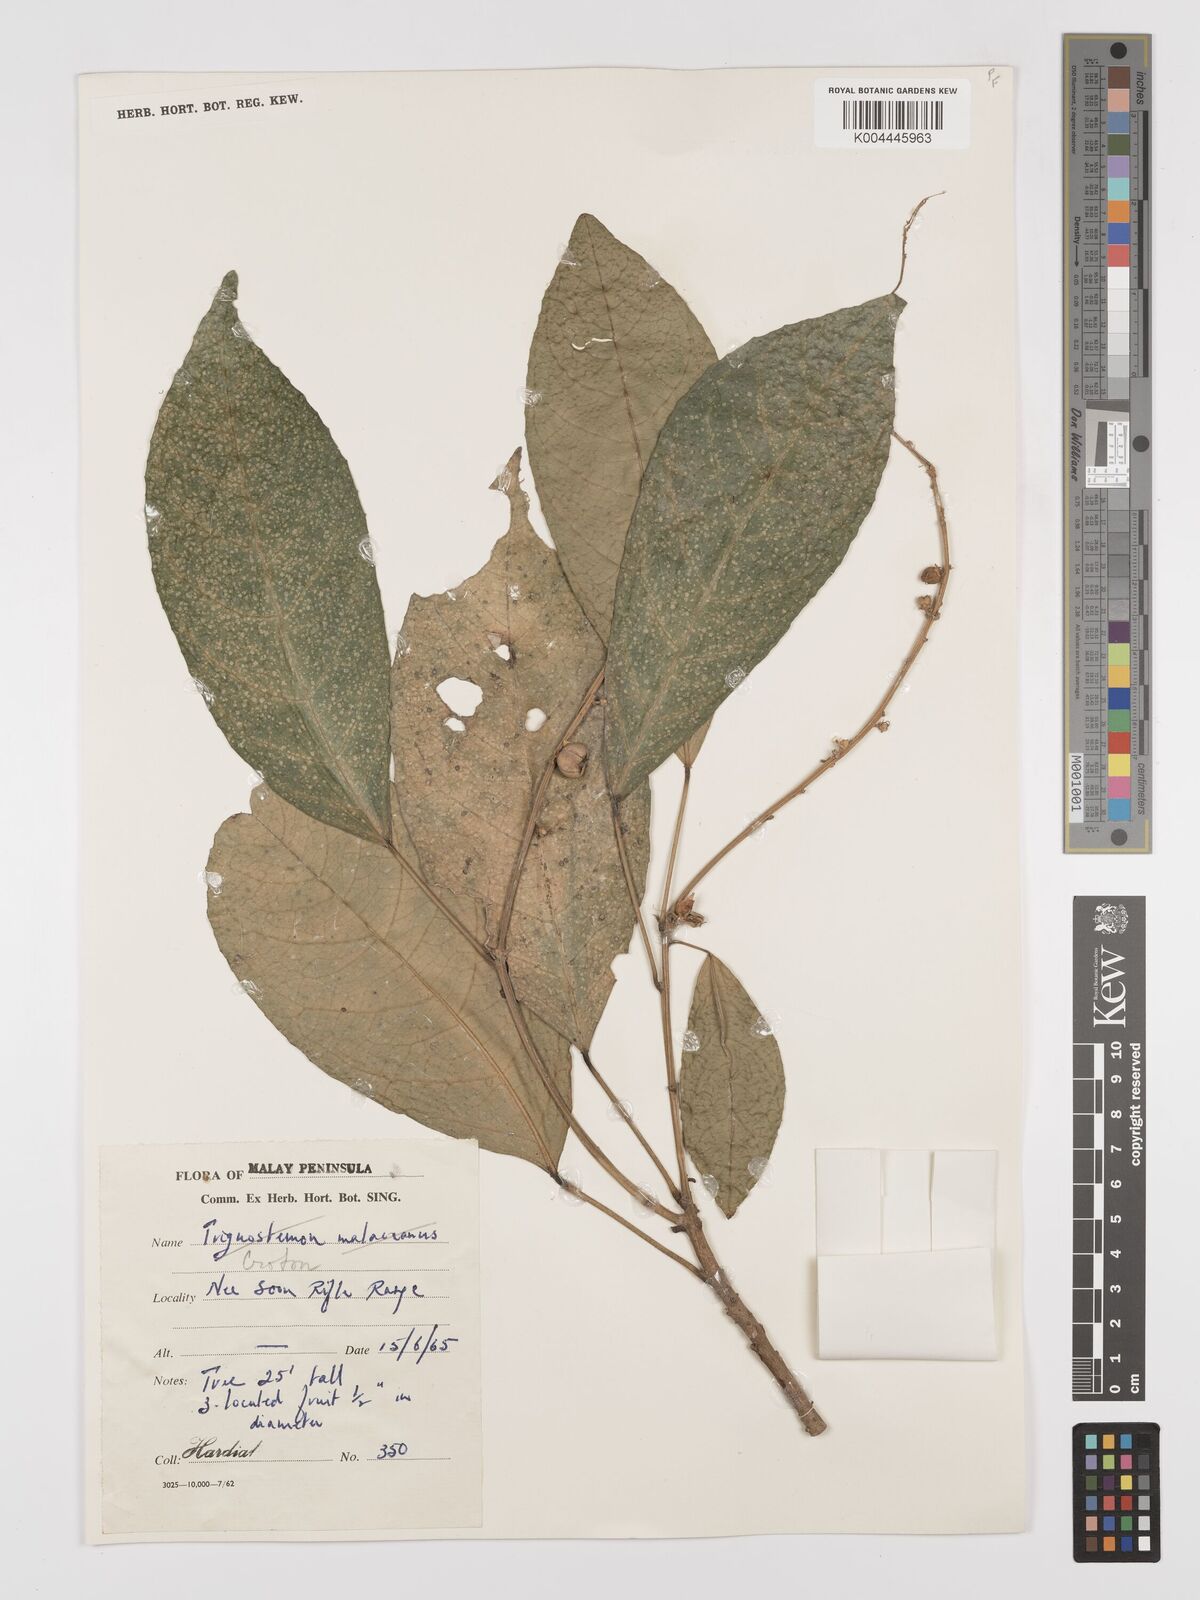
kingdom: Plantae
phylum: Tracheophyta
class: Magnoliopsida
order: Malpighiales
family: Euphorbiaceae
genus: Croton
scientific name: Croton griffithii
